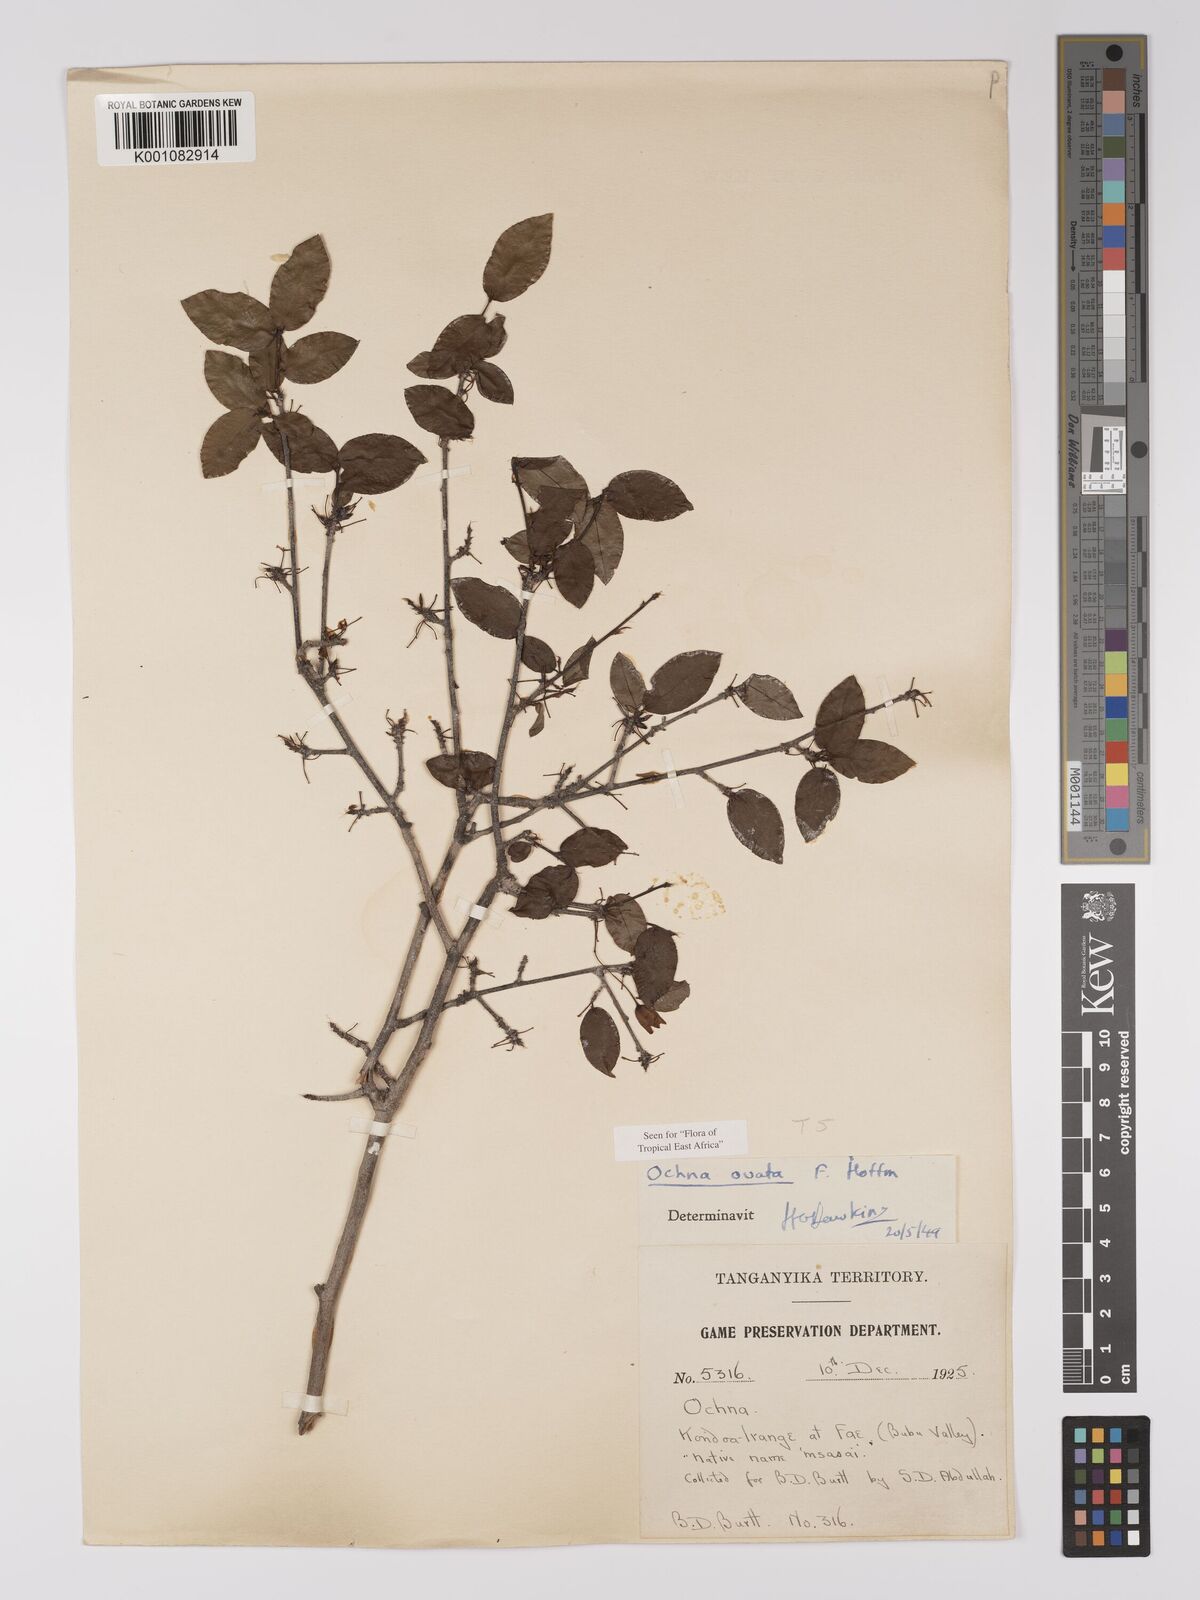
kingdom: Plantae
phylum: Tracheophyta
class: Magnoliopsida
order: Malpighiales
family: Ochnaceae
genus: Ochna
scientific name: Ochna ovata
